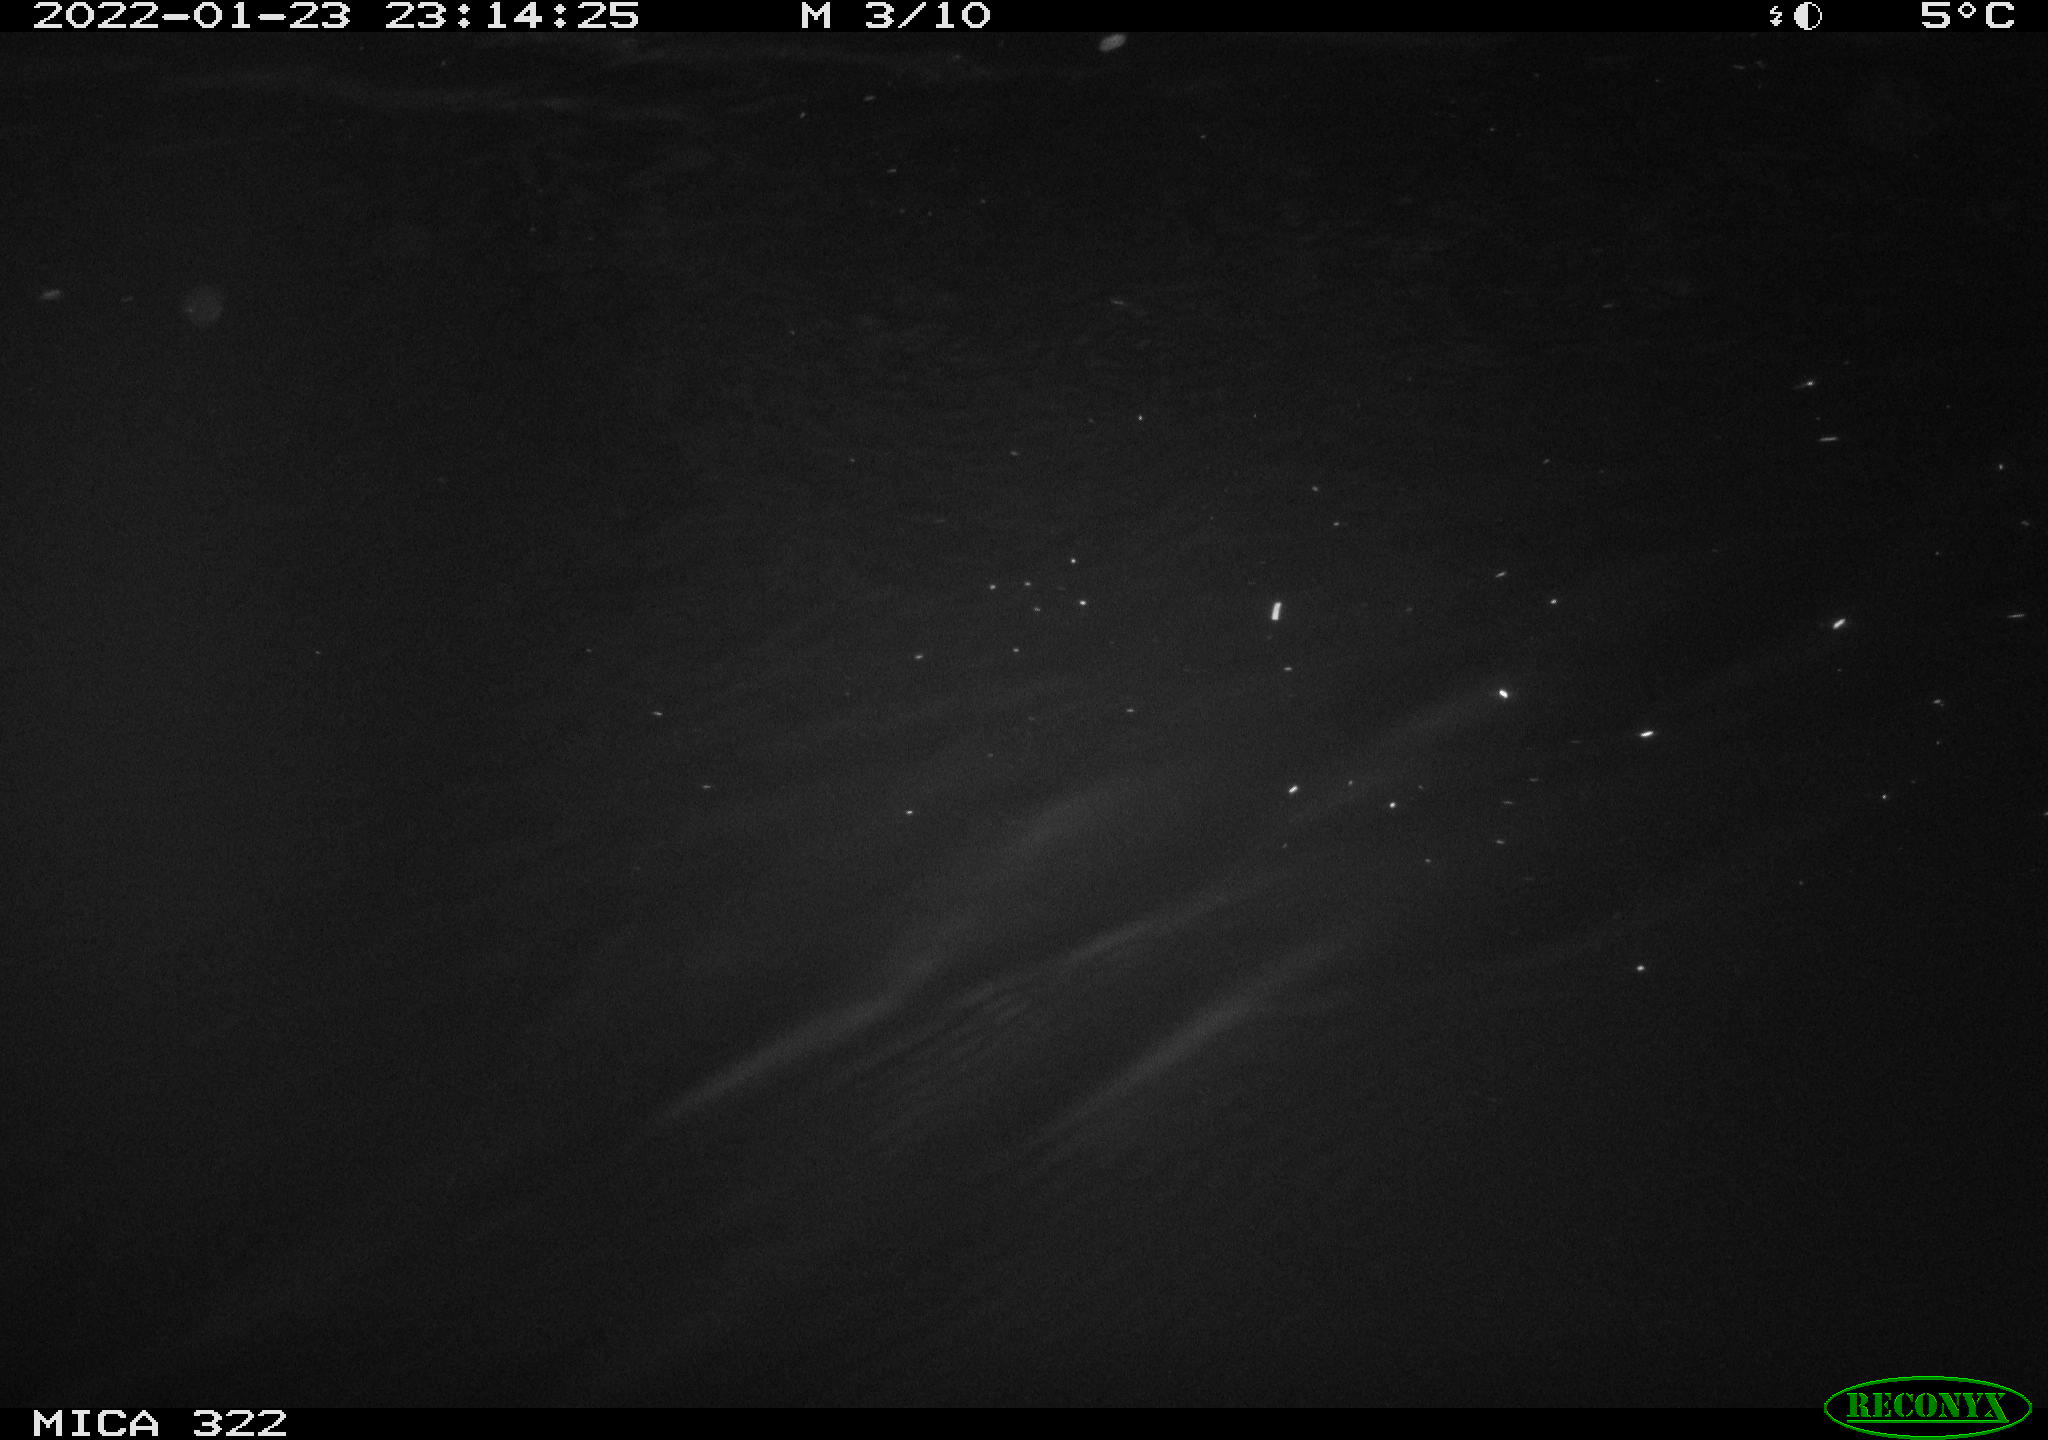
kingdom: Animalia
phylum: Chordata
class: Aves
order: Anseriformes
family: Anatidae
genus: Anas
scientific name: Anas
